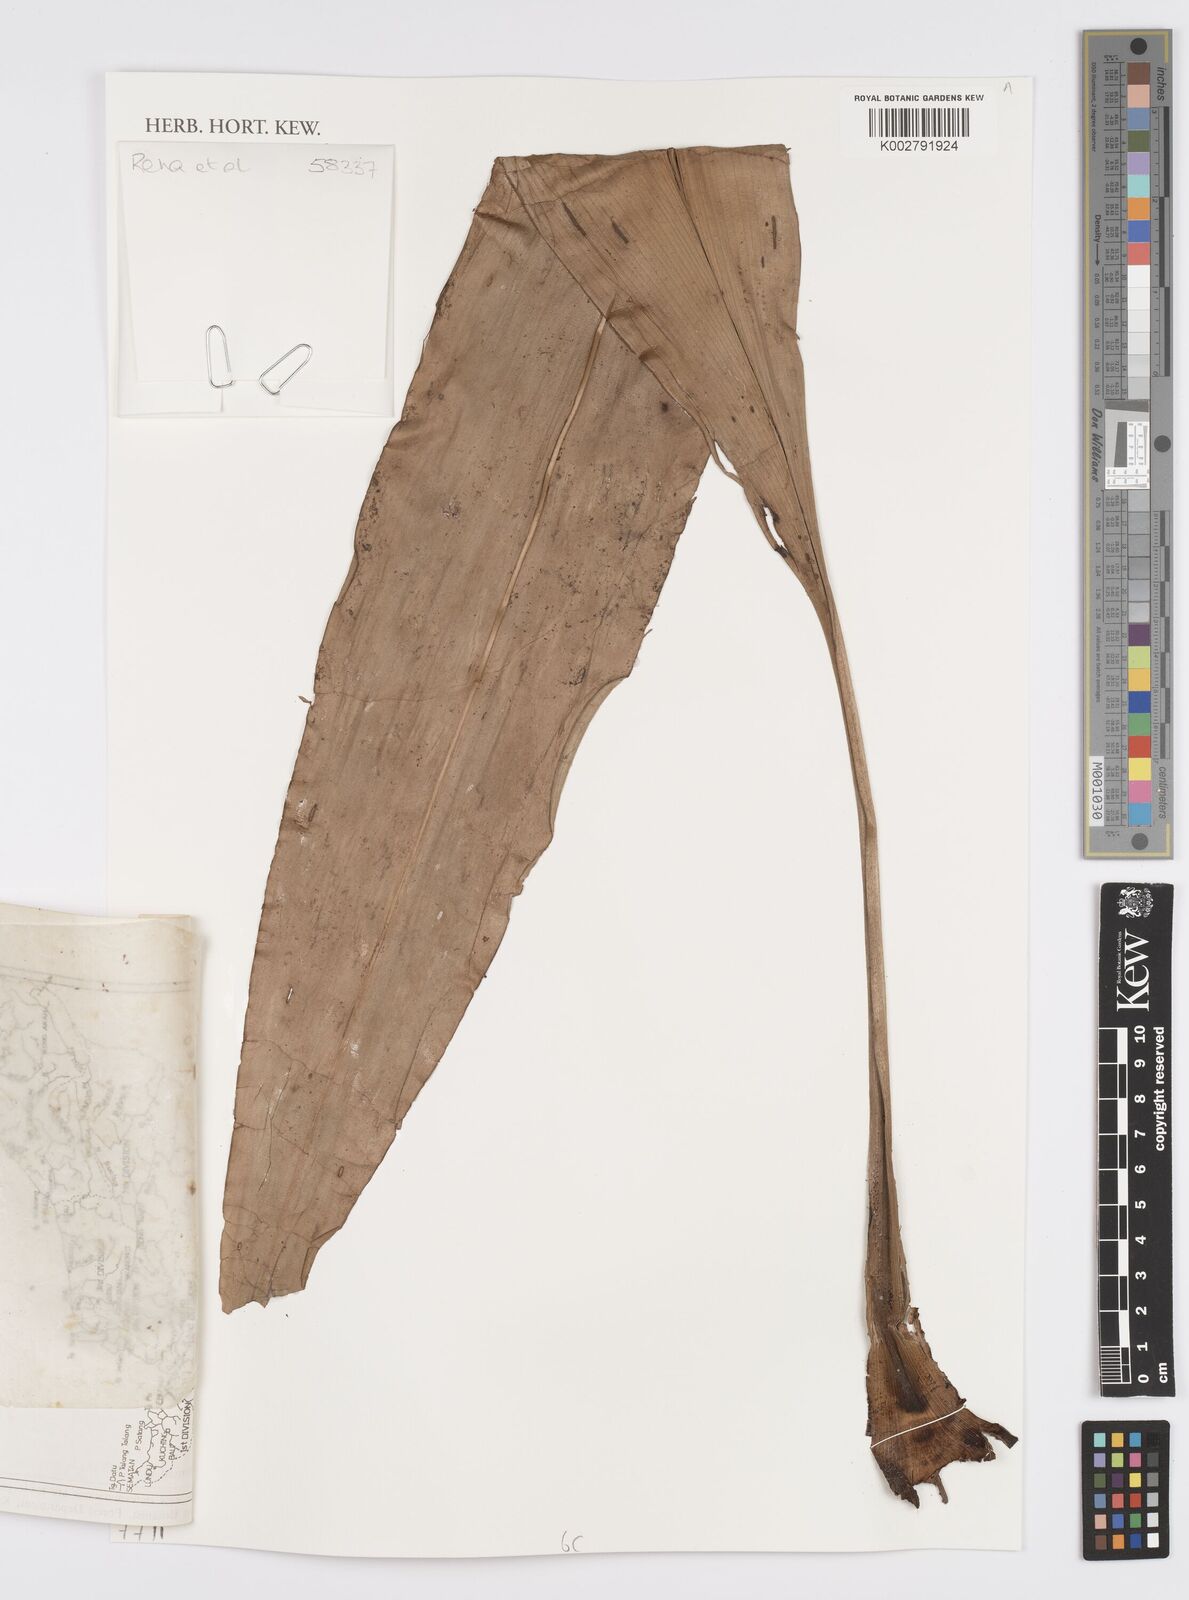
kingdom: Plantae
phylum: Tracheophyta
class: Liliopsida
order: Commelinales
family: Hanguanaceae
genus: Hanguana
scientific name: Hanguana
